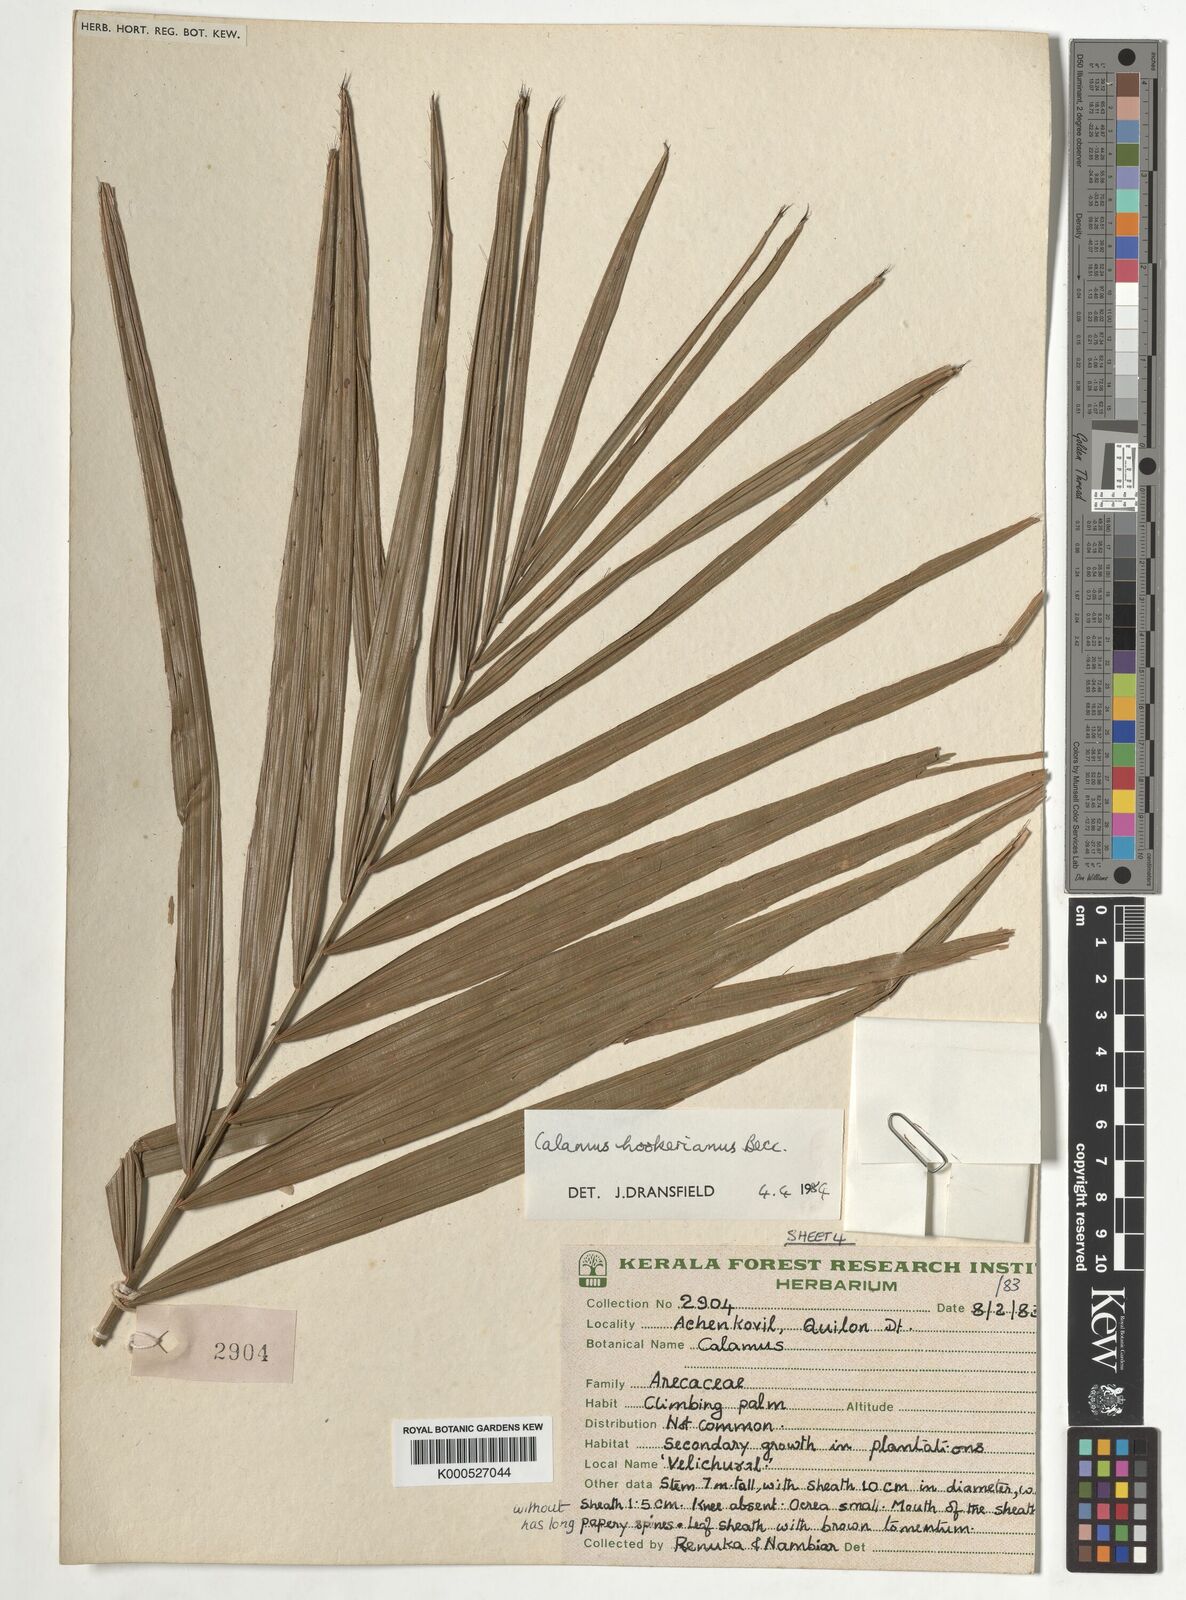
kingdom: Plantae
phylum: Tracheophyta
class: Liliopsida
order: Arecales
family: Arecaceae
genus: Calamus
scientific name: Calamus hookerianus
